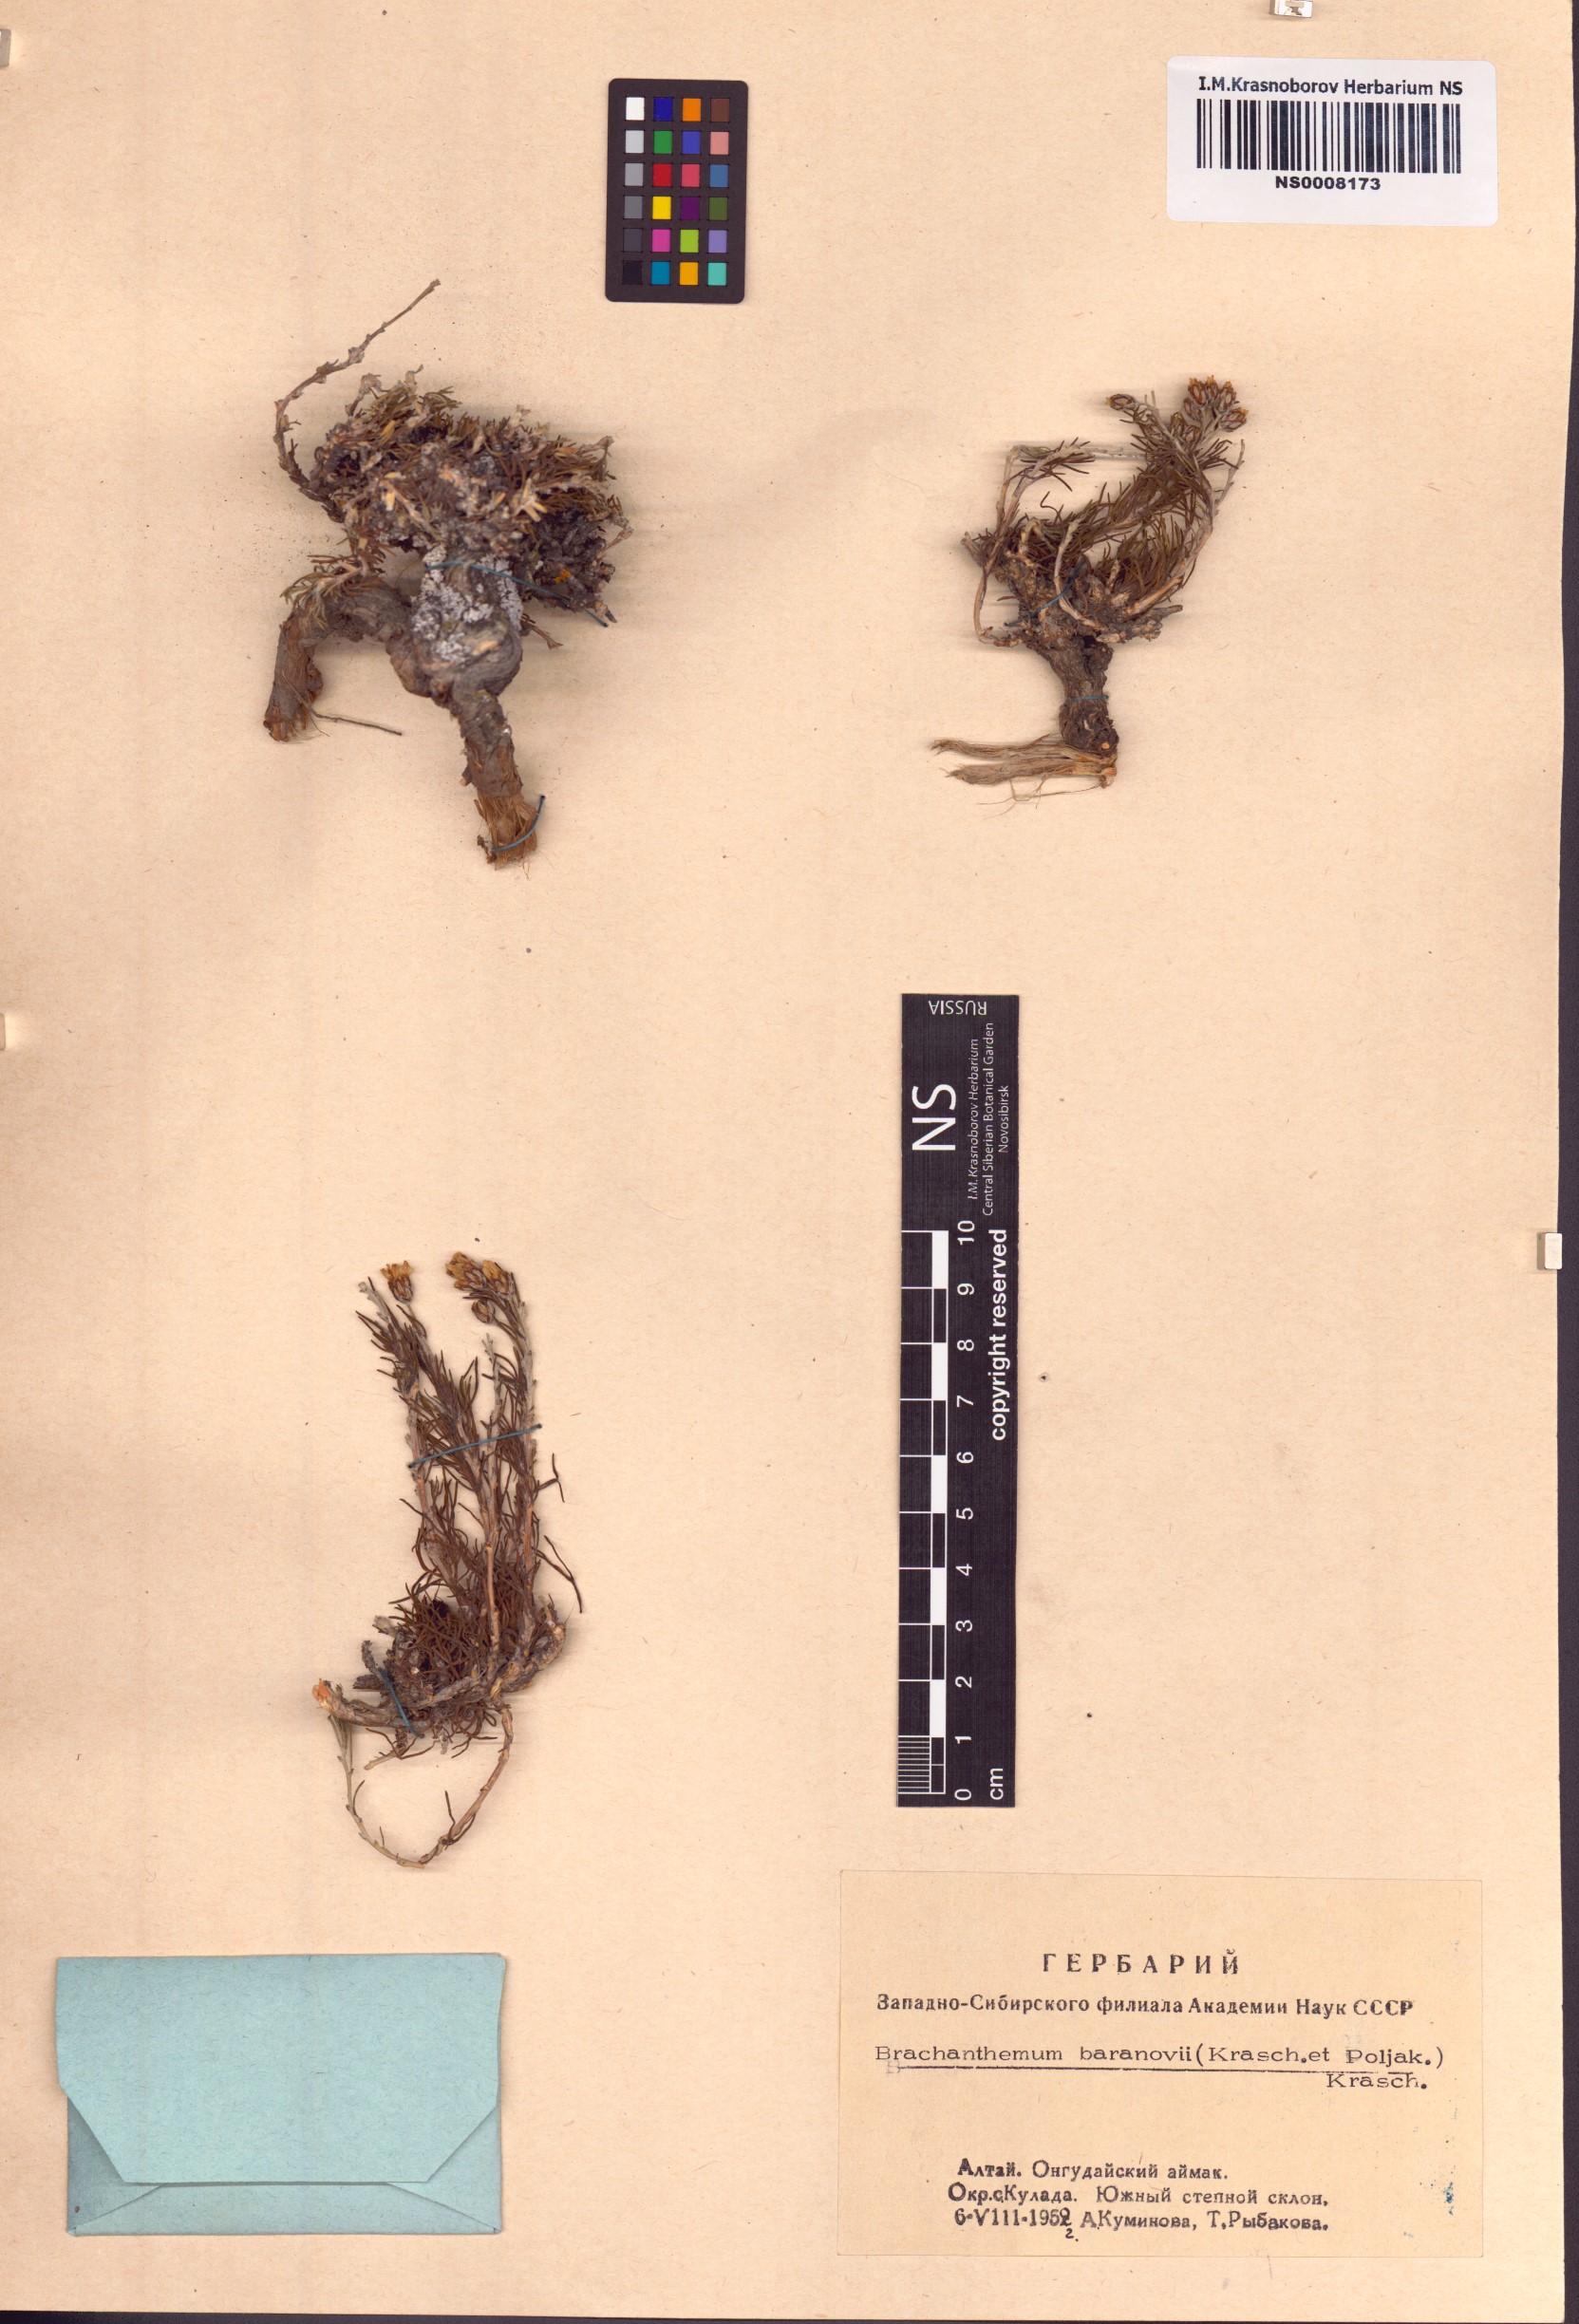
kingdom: Plantae
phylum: Tracheophyta
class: Magnoliopsida
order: Asterales
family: Asteraceae
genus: Brachanthemum
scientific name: Brachanthemum baranovii
